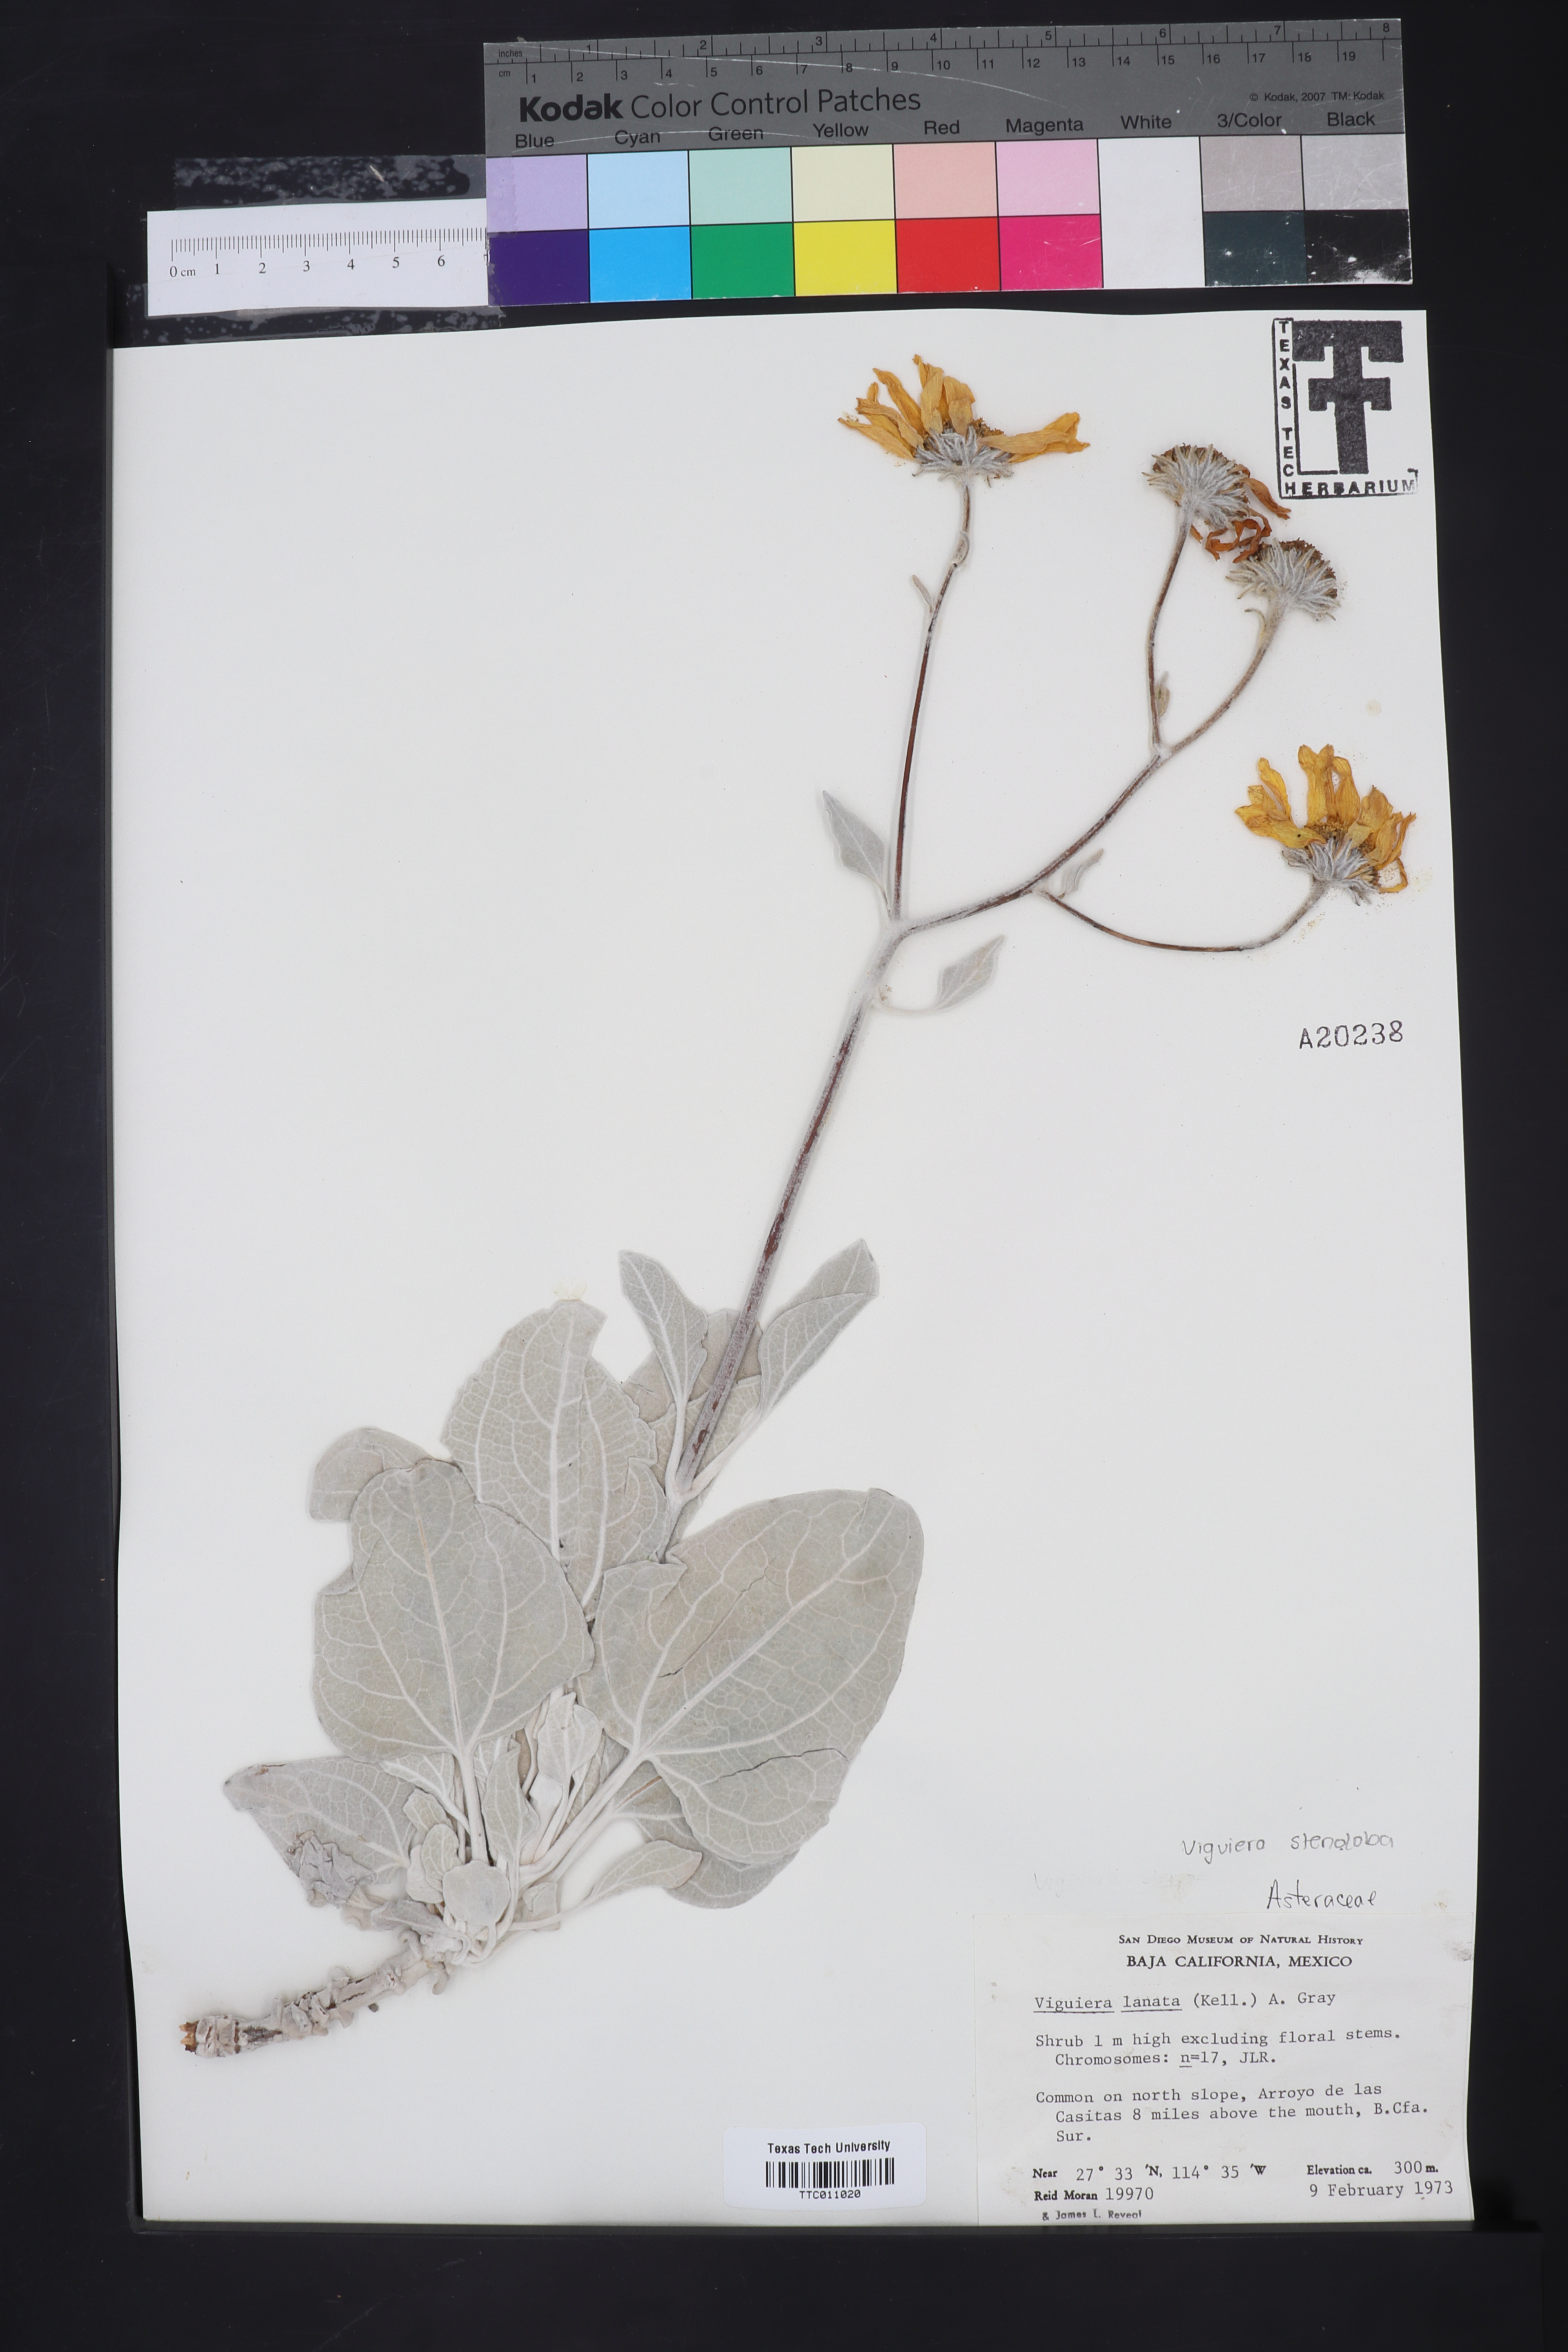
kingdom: Plantae
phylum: Tracheophyta
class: Magnoliopsida
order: Asterales
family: Asteraceae
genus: Bahiopsis
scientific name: Bahiopsis lanata
